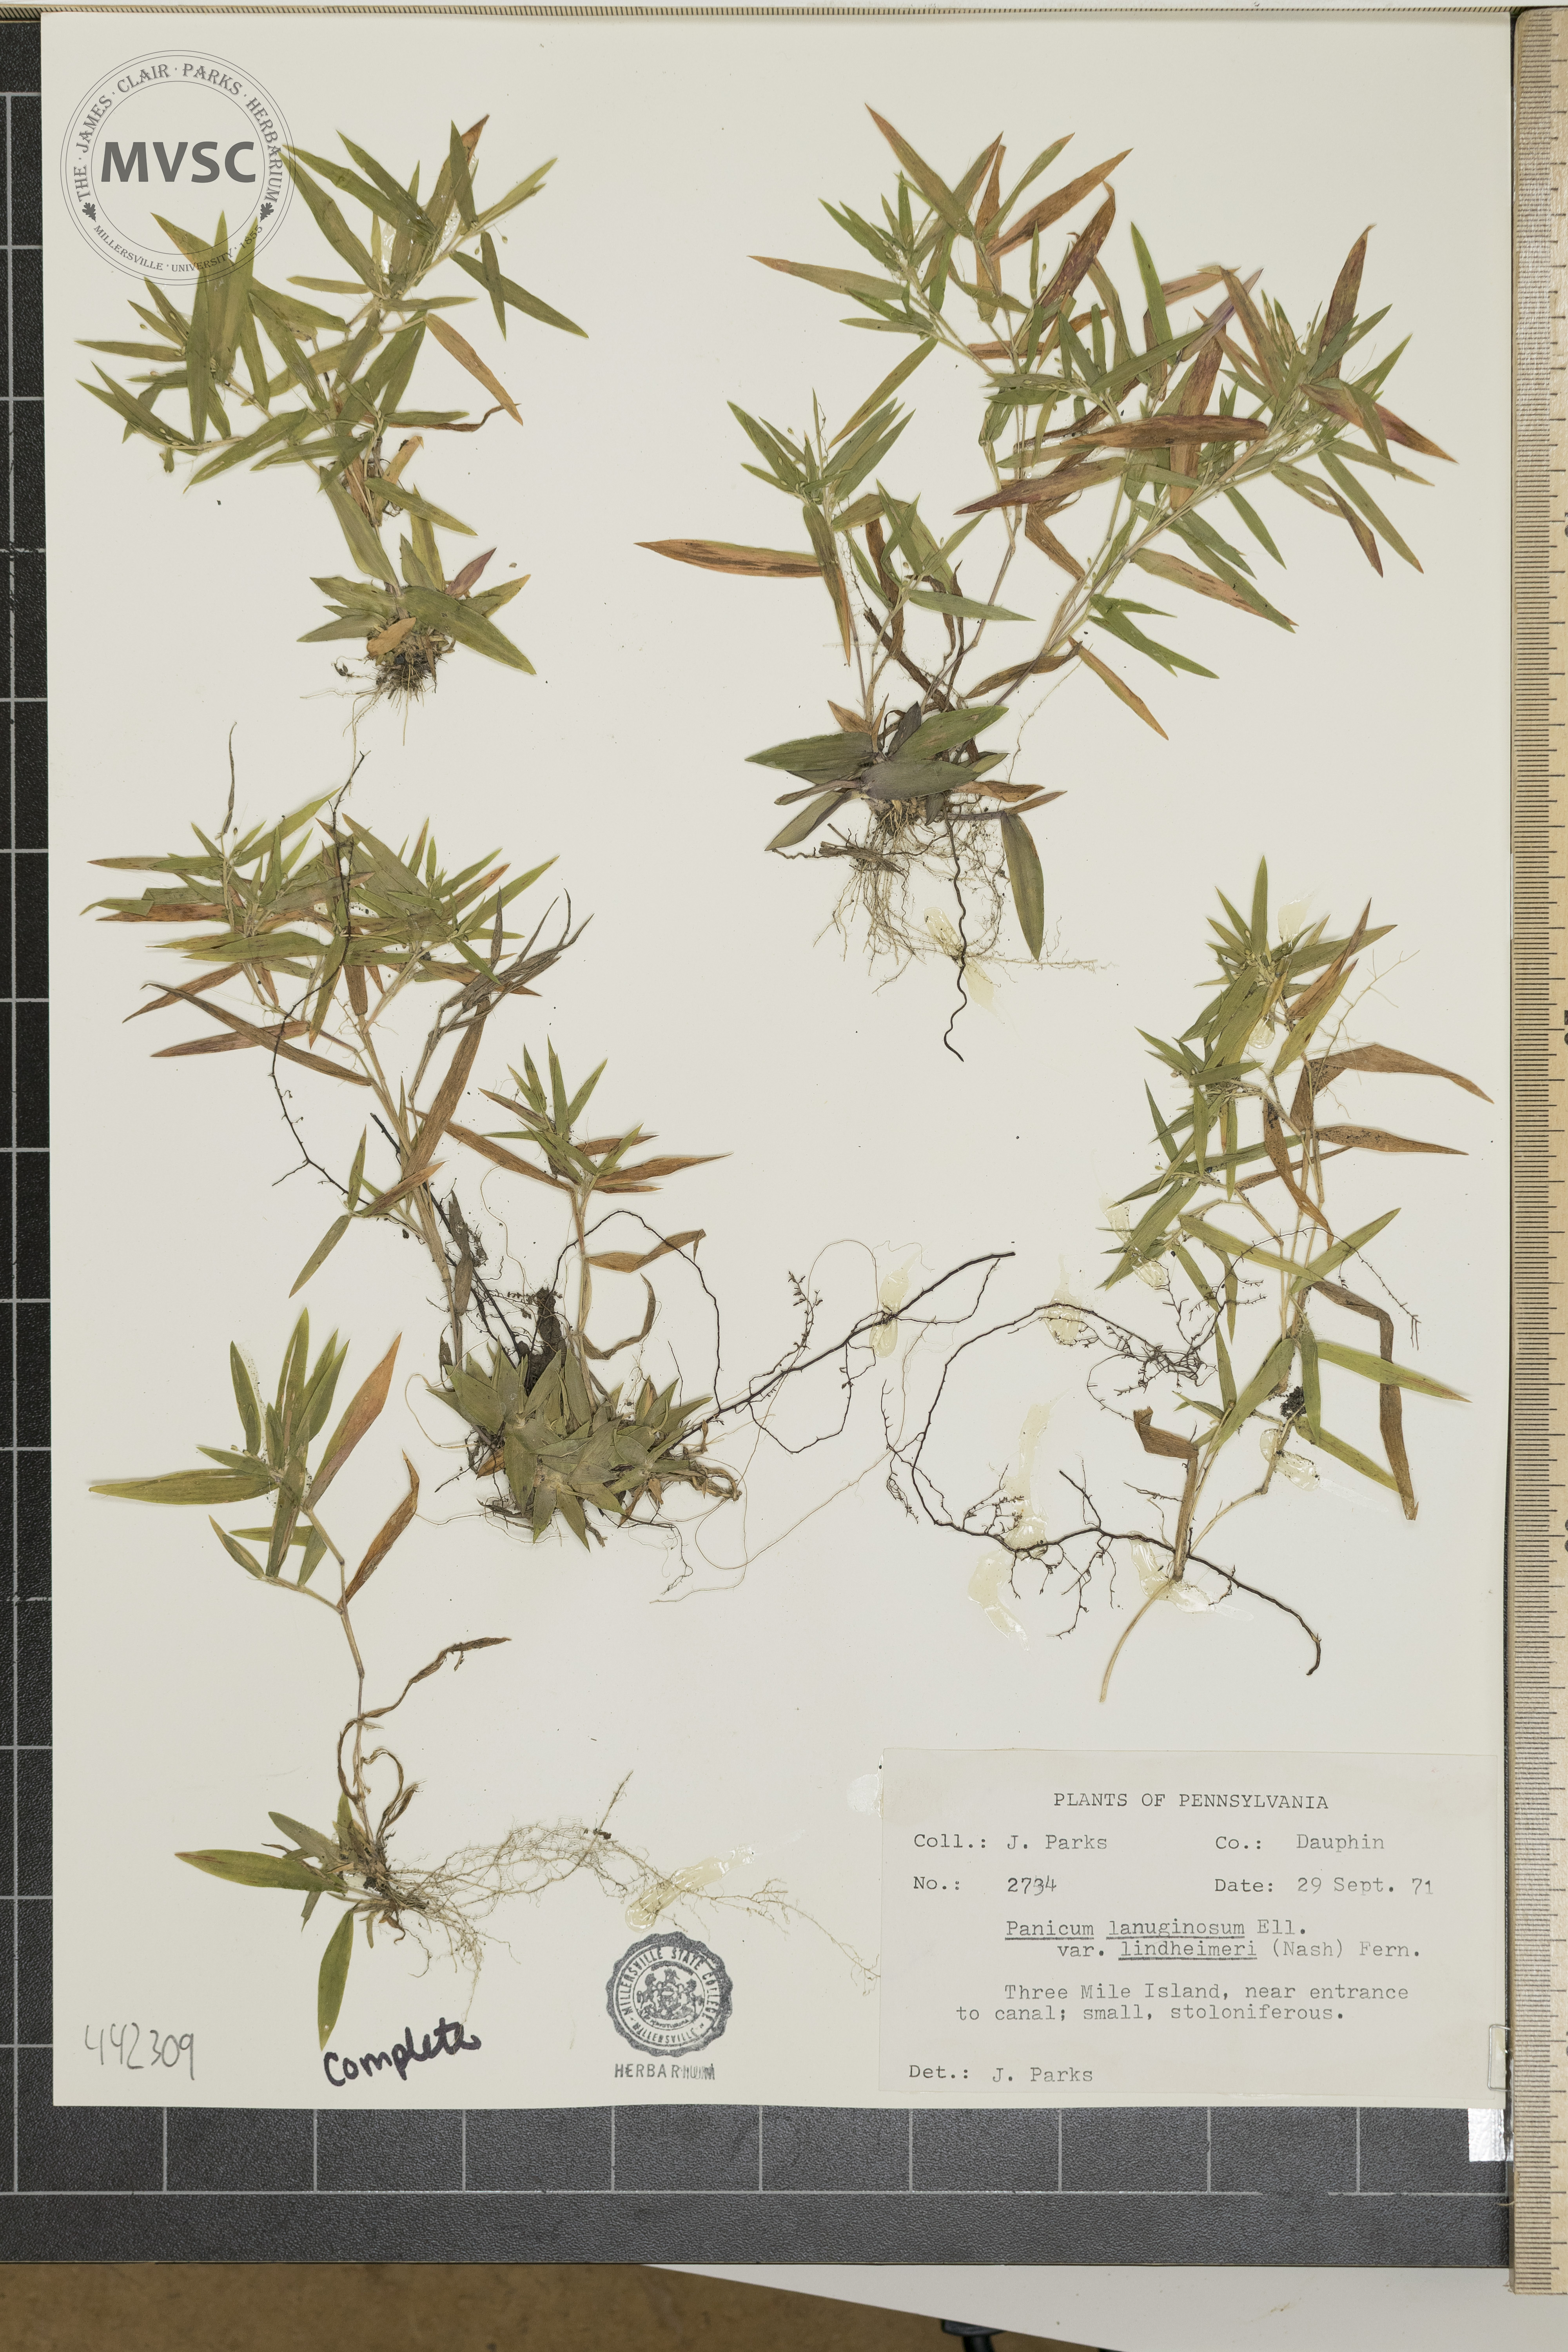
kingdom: Plantae
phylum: Tracheophyta
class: Liliopsida
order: Poales
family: Poaceae
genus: Dichanthelium
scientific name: Dichanthelium
